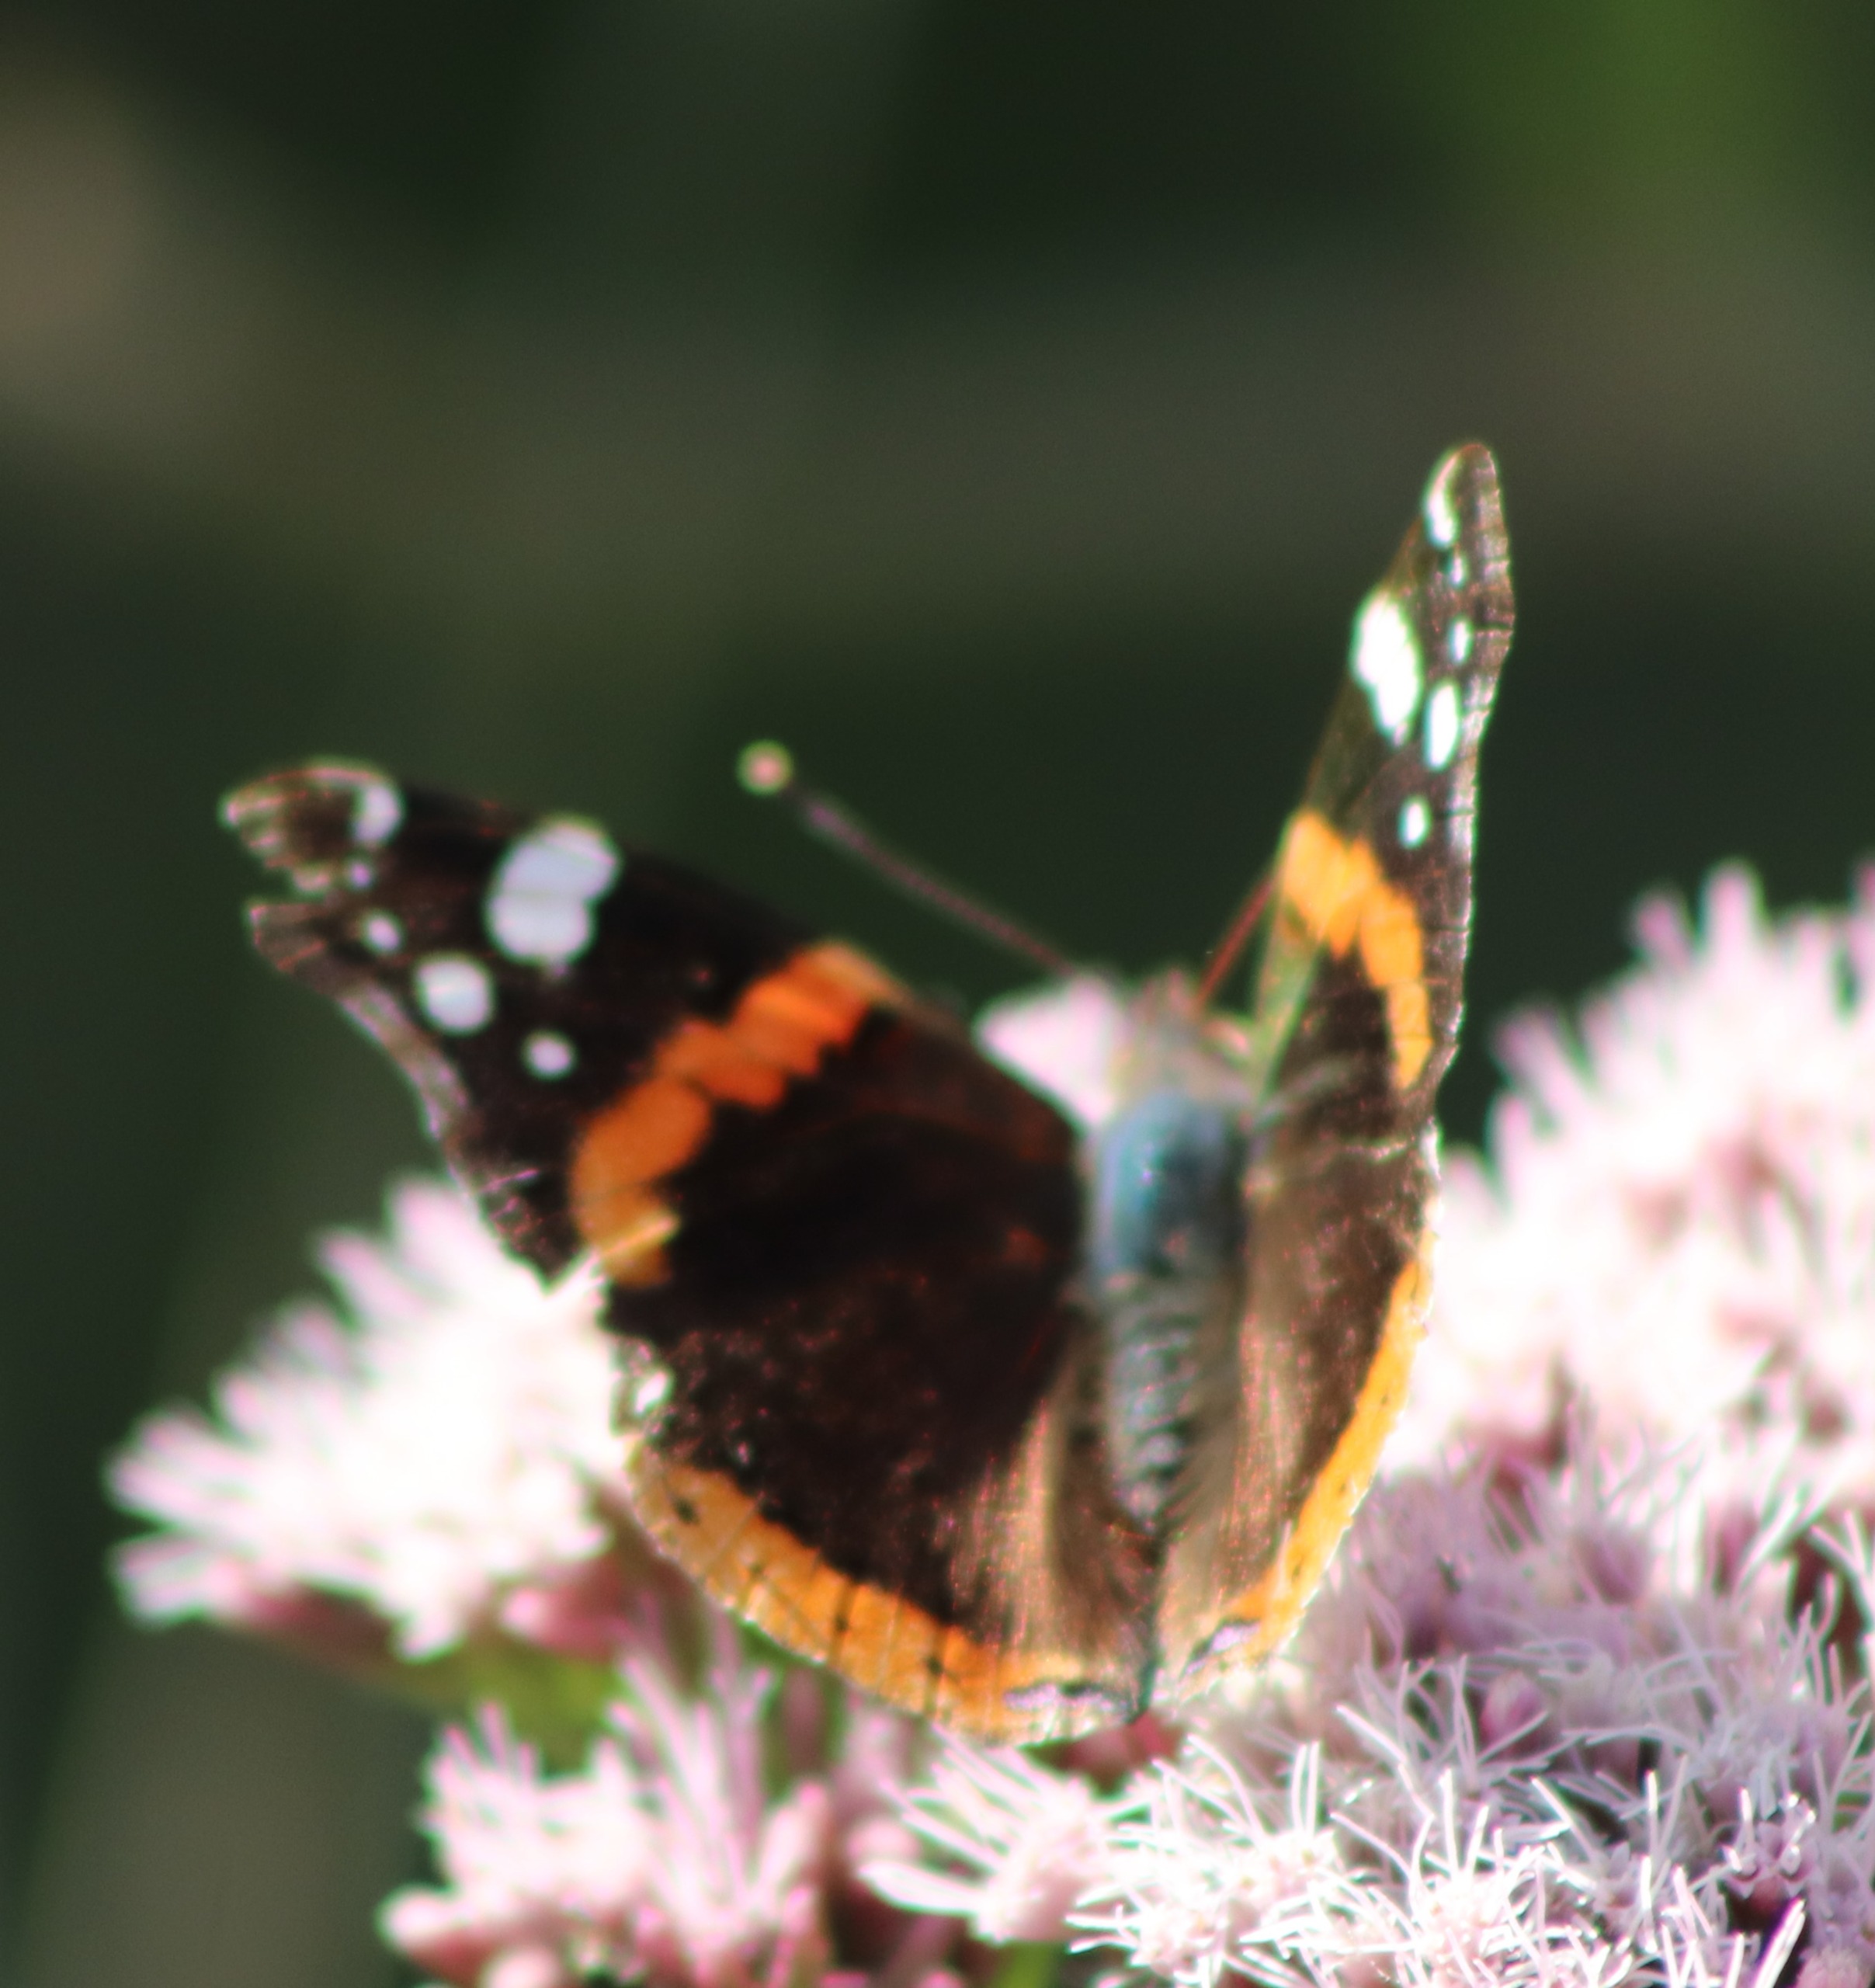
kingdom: Animalia
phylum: Arthropoda
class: Insecta
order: Lepidoptera
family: Nymphalidae
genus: Vanessa
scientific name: Vanessa atalanta
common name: Admiral
